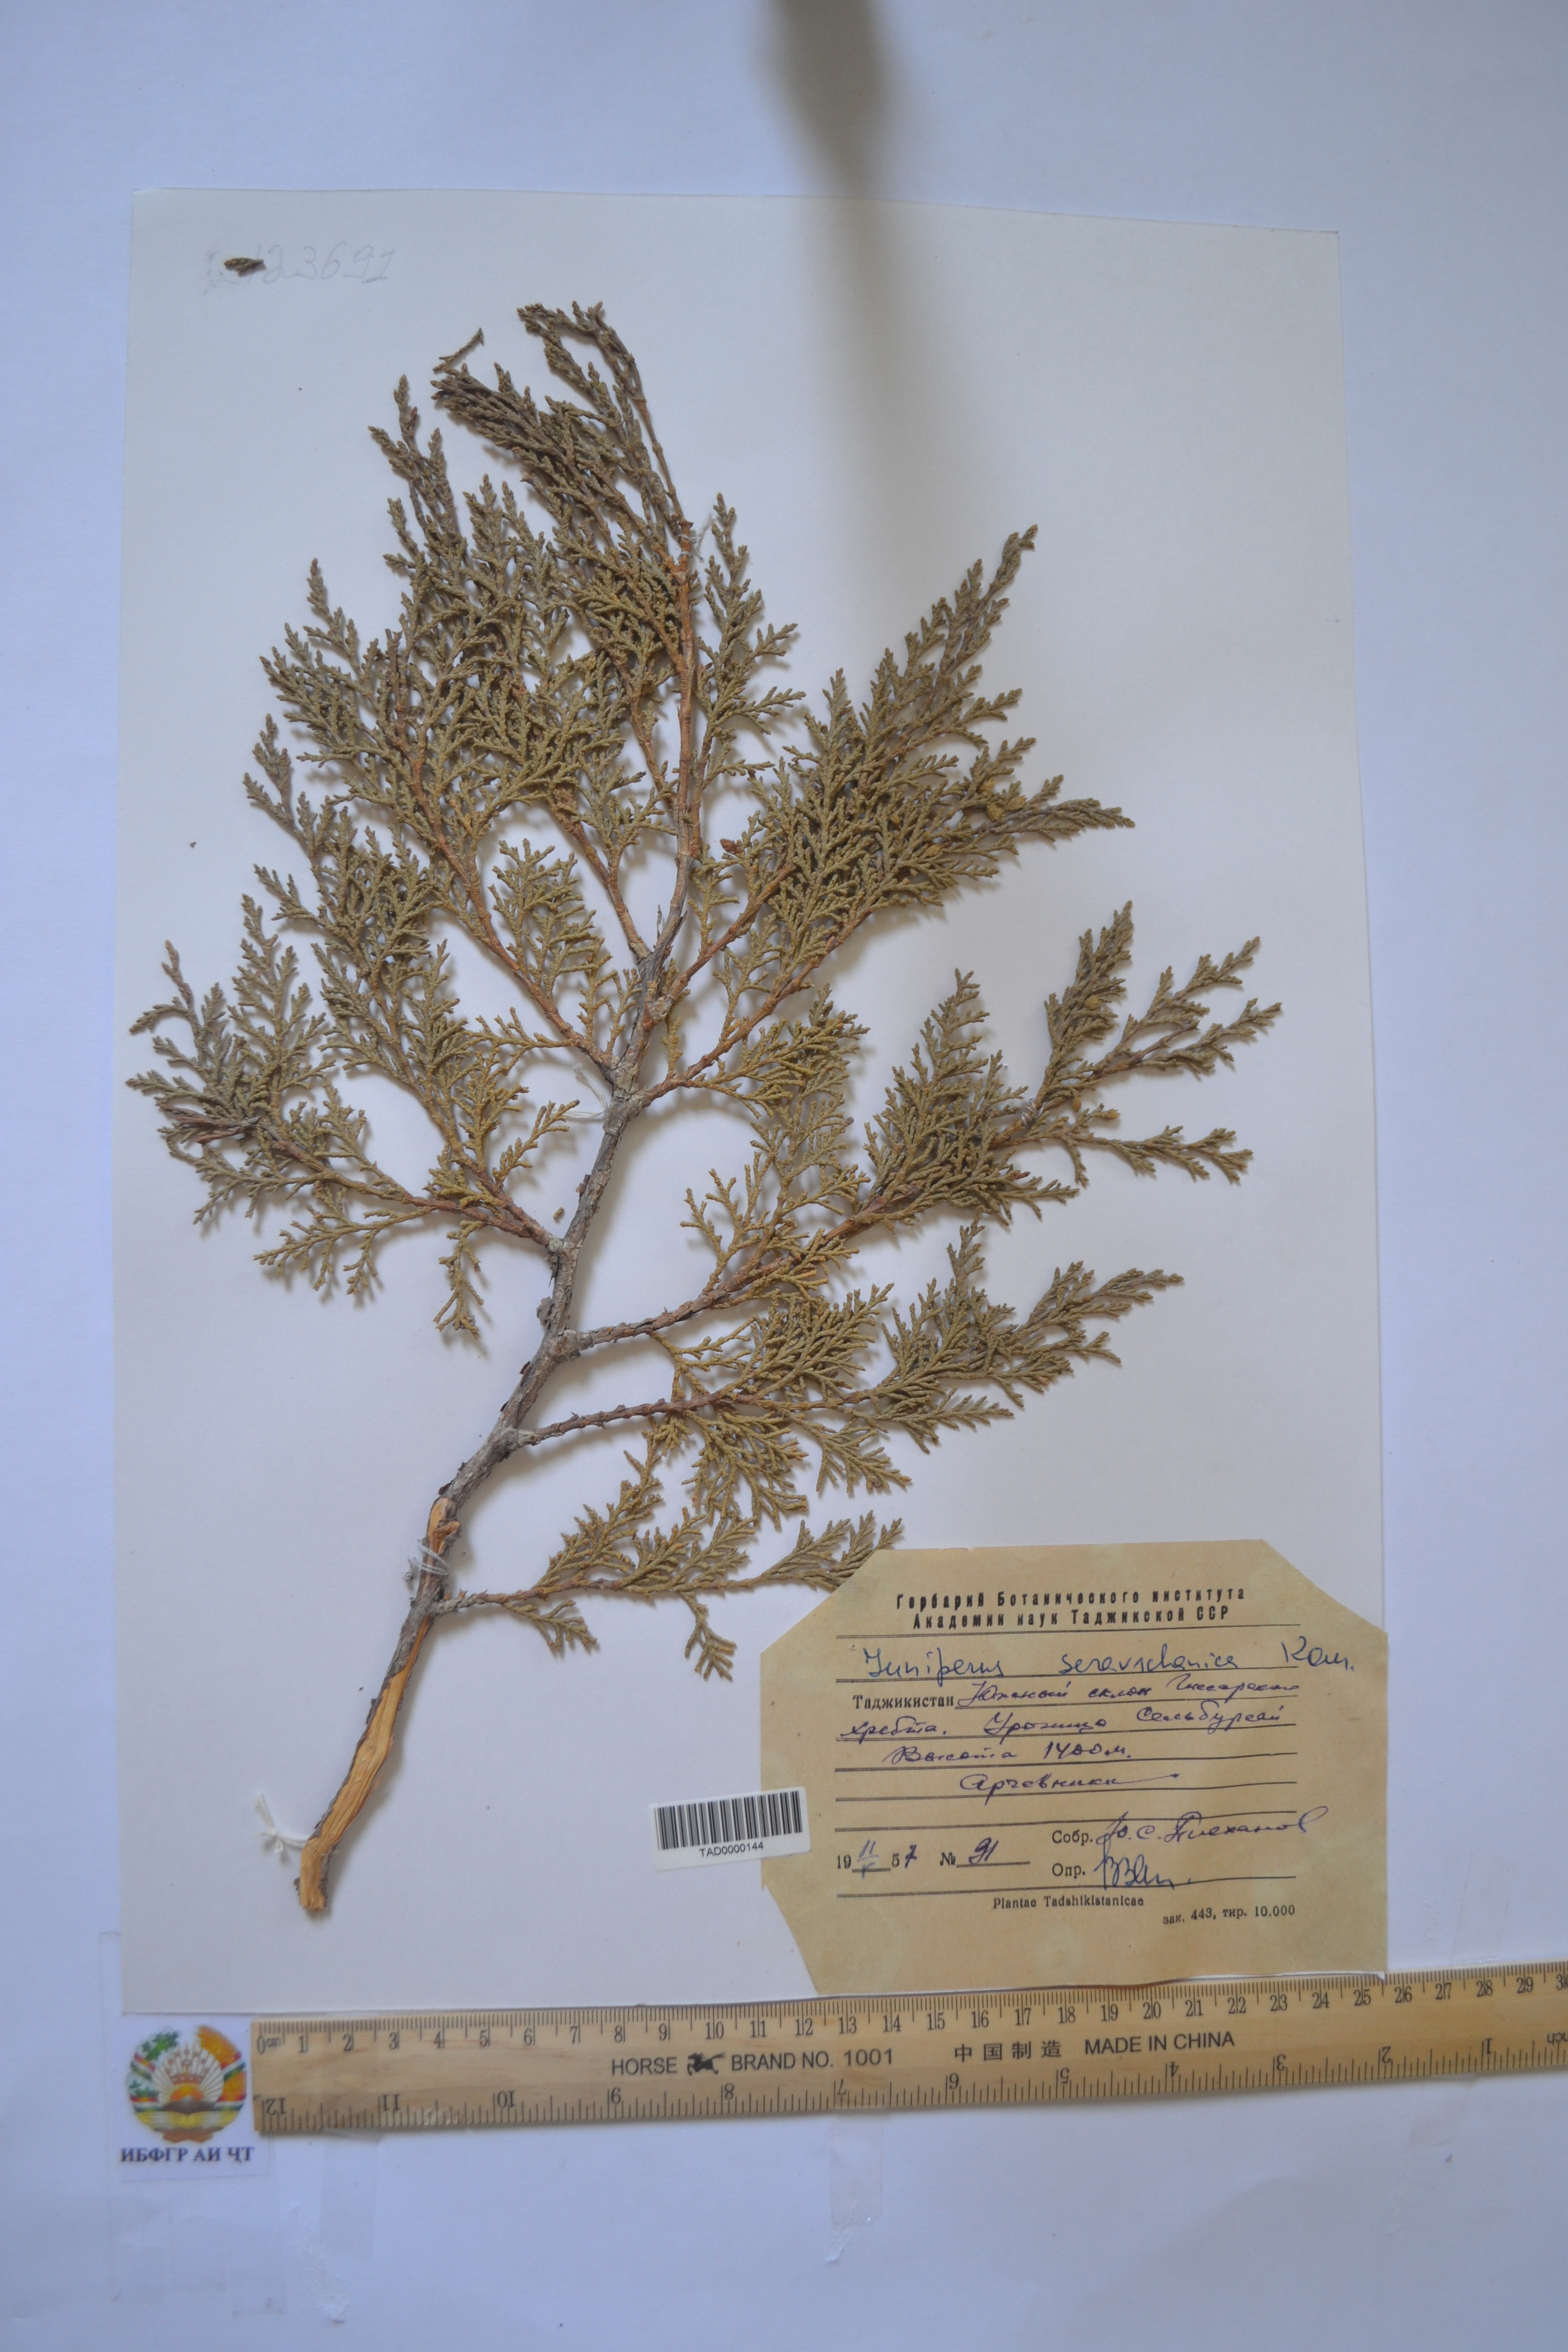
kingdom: Plantae
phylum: Tracheophyta
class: Pinopsida
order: Pinales
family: Cupressaceae
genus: Juniperus
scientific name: Juniperus excelsa
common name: Crimean juniper
